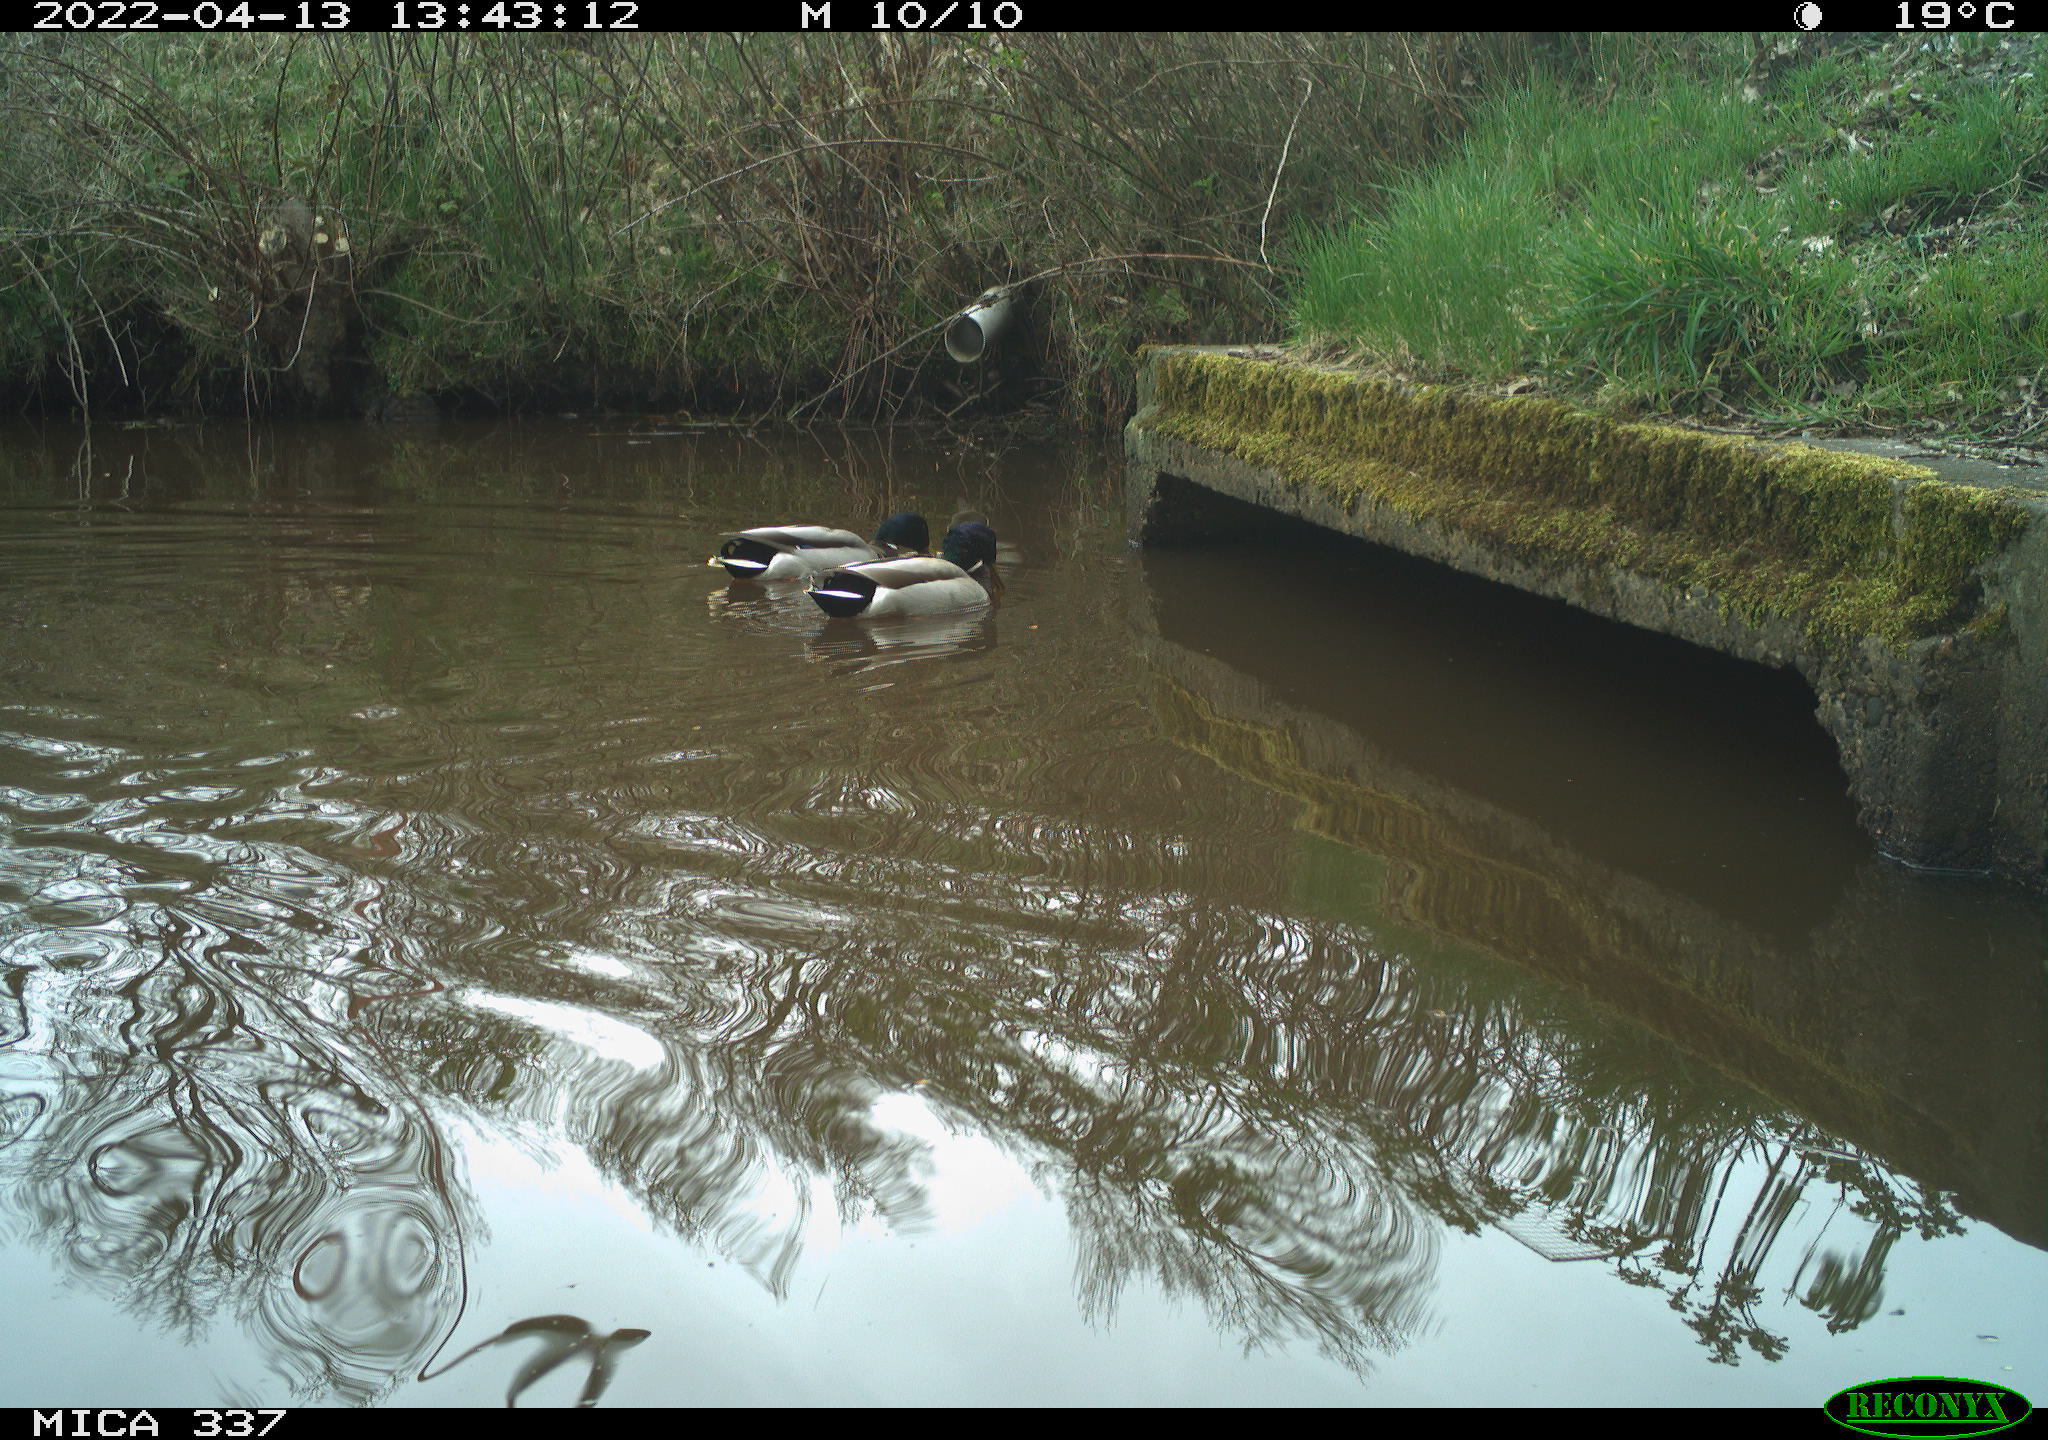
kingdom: Animalia
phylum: Chordata
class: Aves
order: Anseriformes
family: Anatidae
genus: Anas
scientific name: Anas platyrhynchos
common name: Mallard
